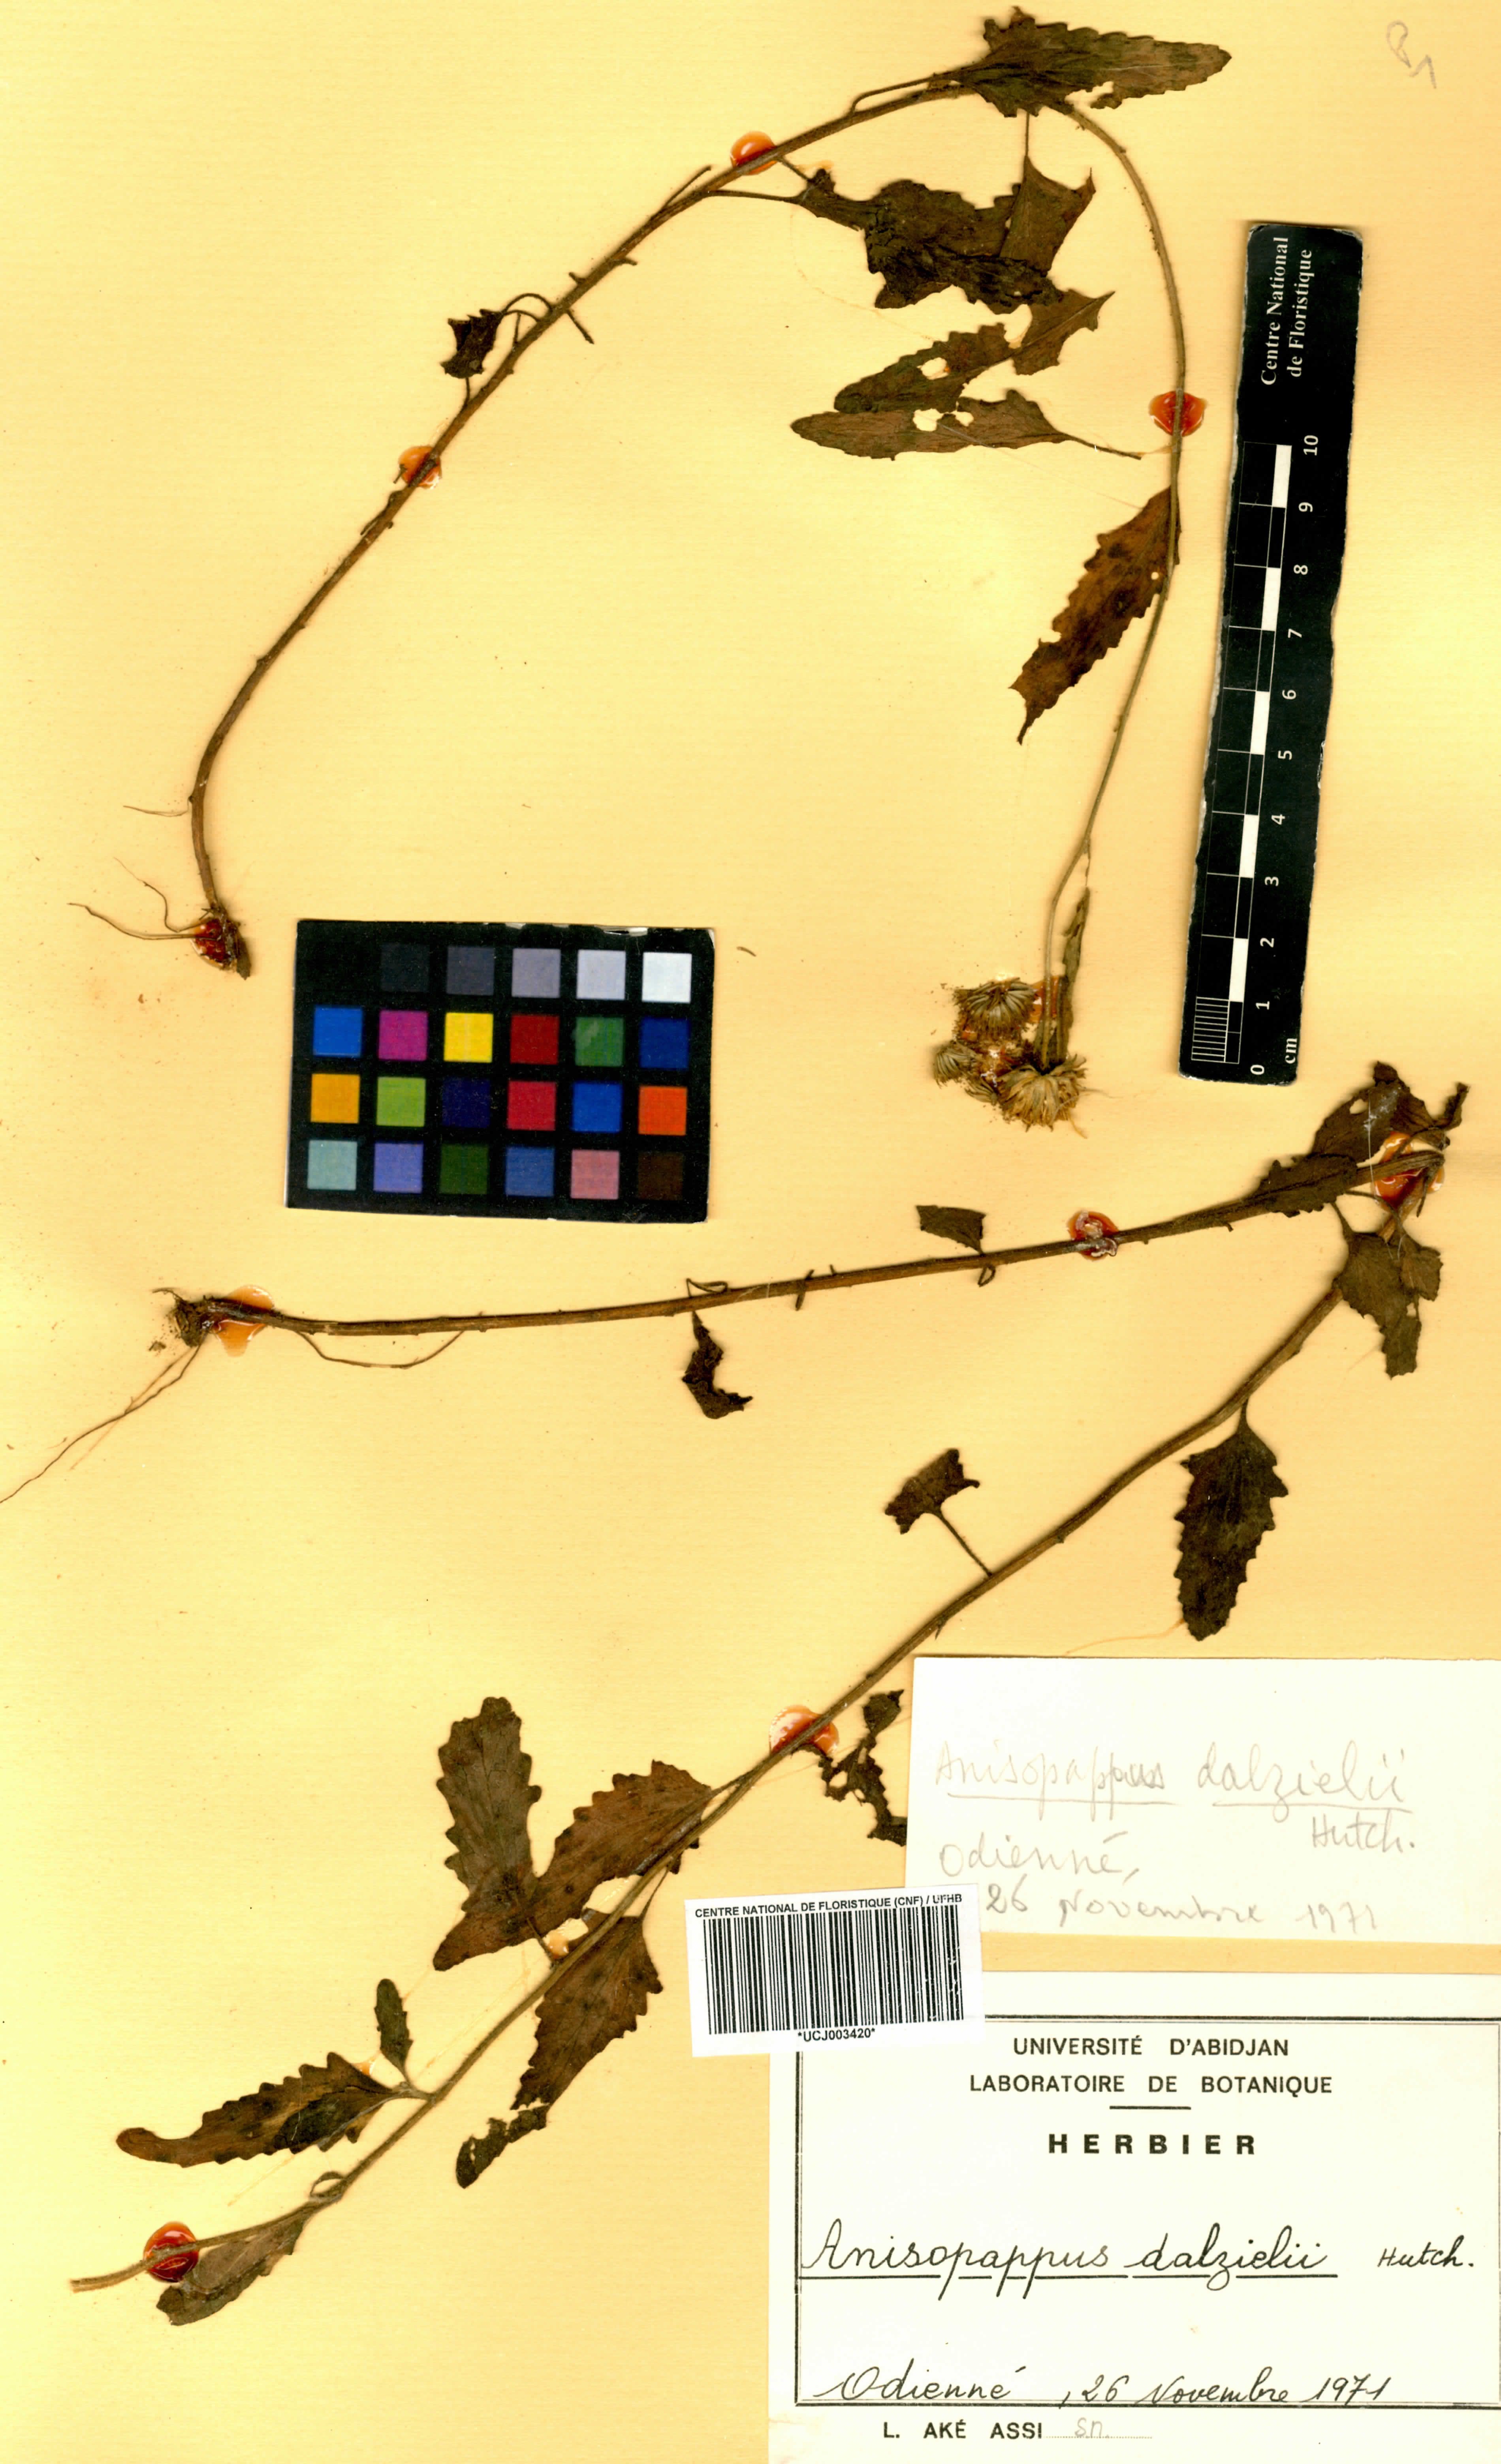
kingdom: Plantae
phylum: Tracheophyta
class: Magnoliopsida
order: Asterales
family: Asteraceae
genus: Anisopappus
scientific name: Anisopappus africanus
